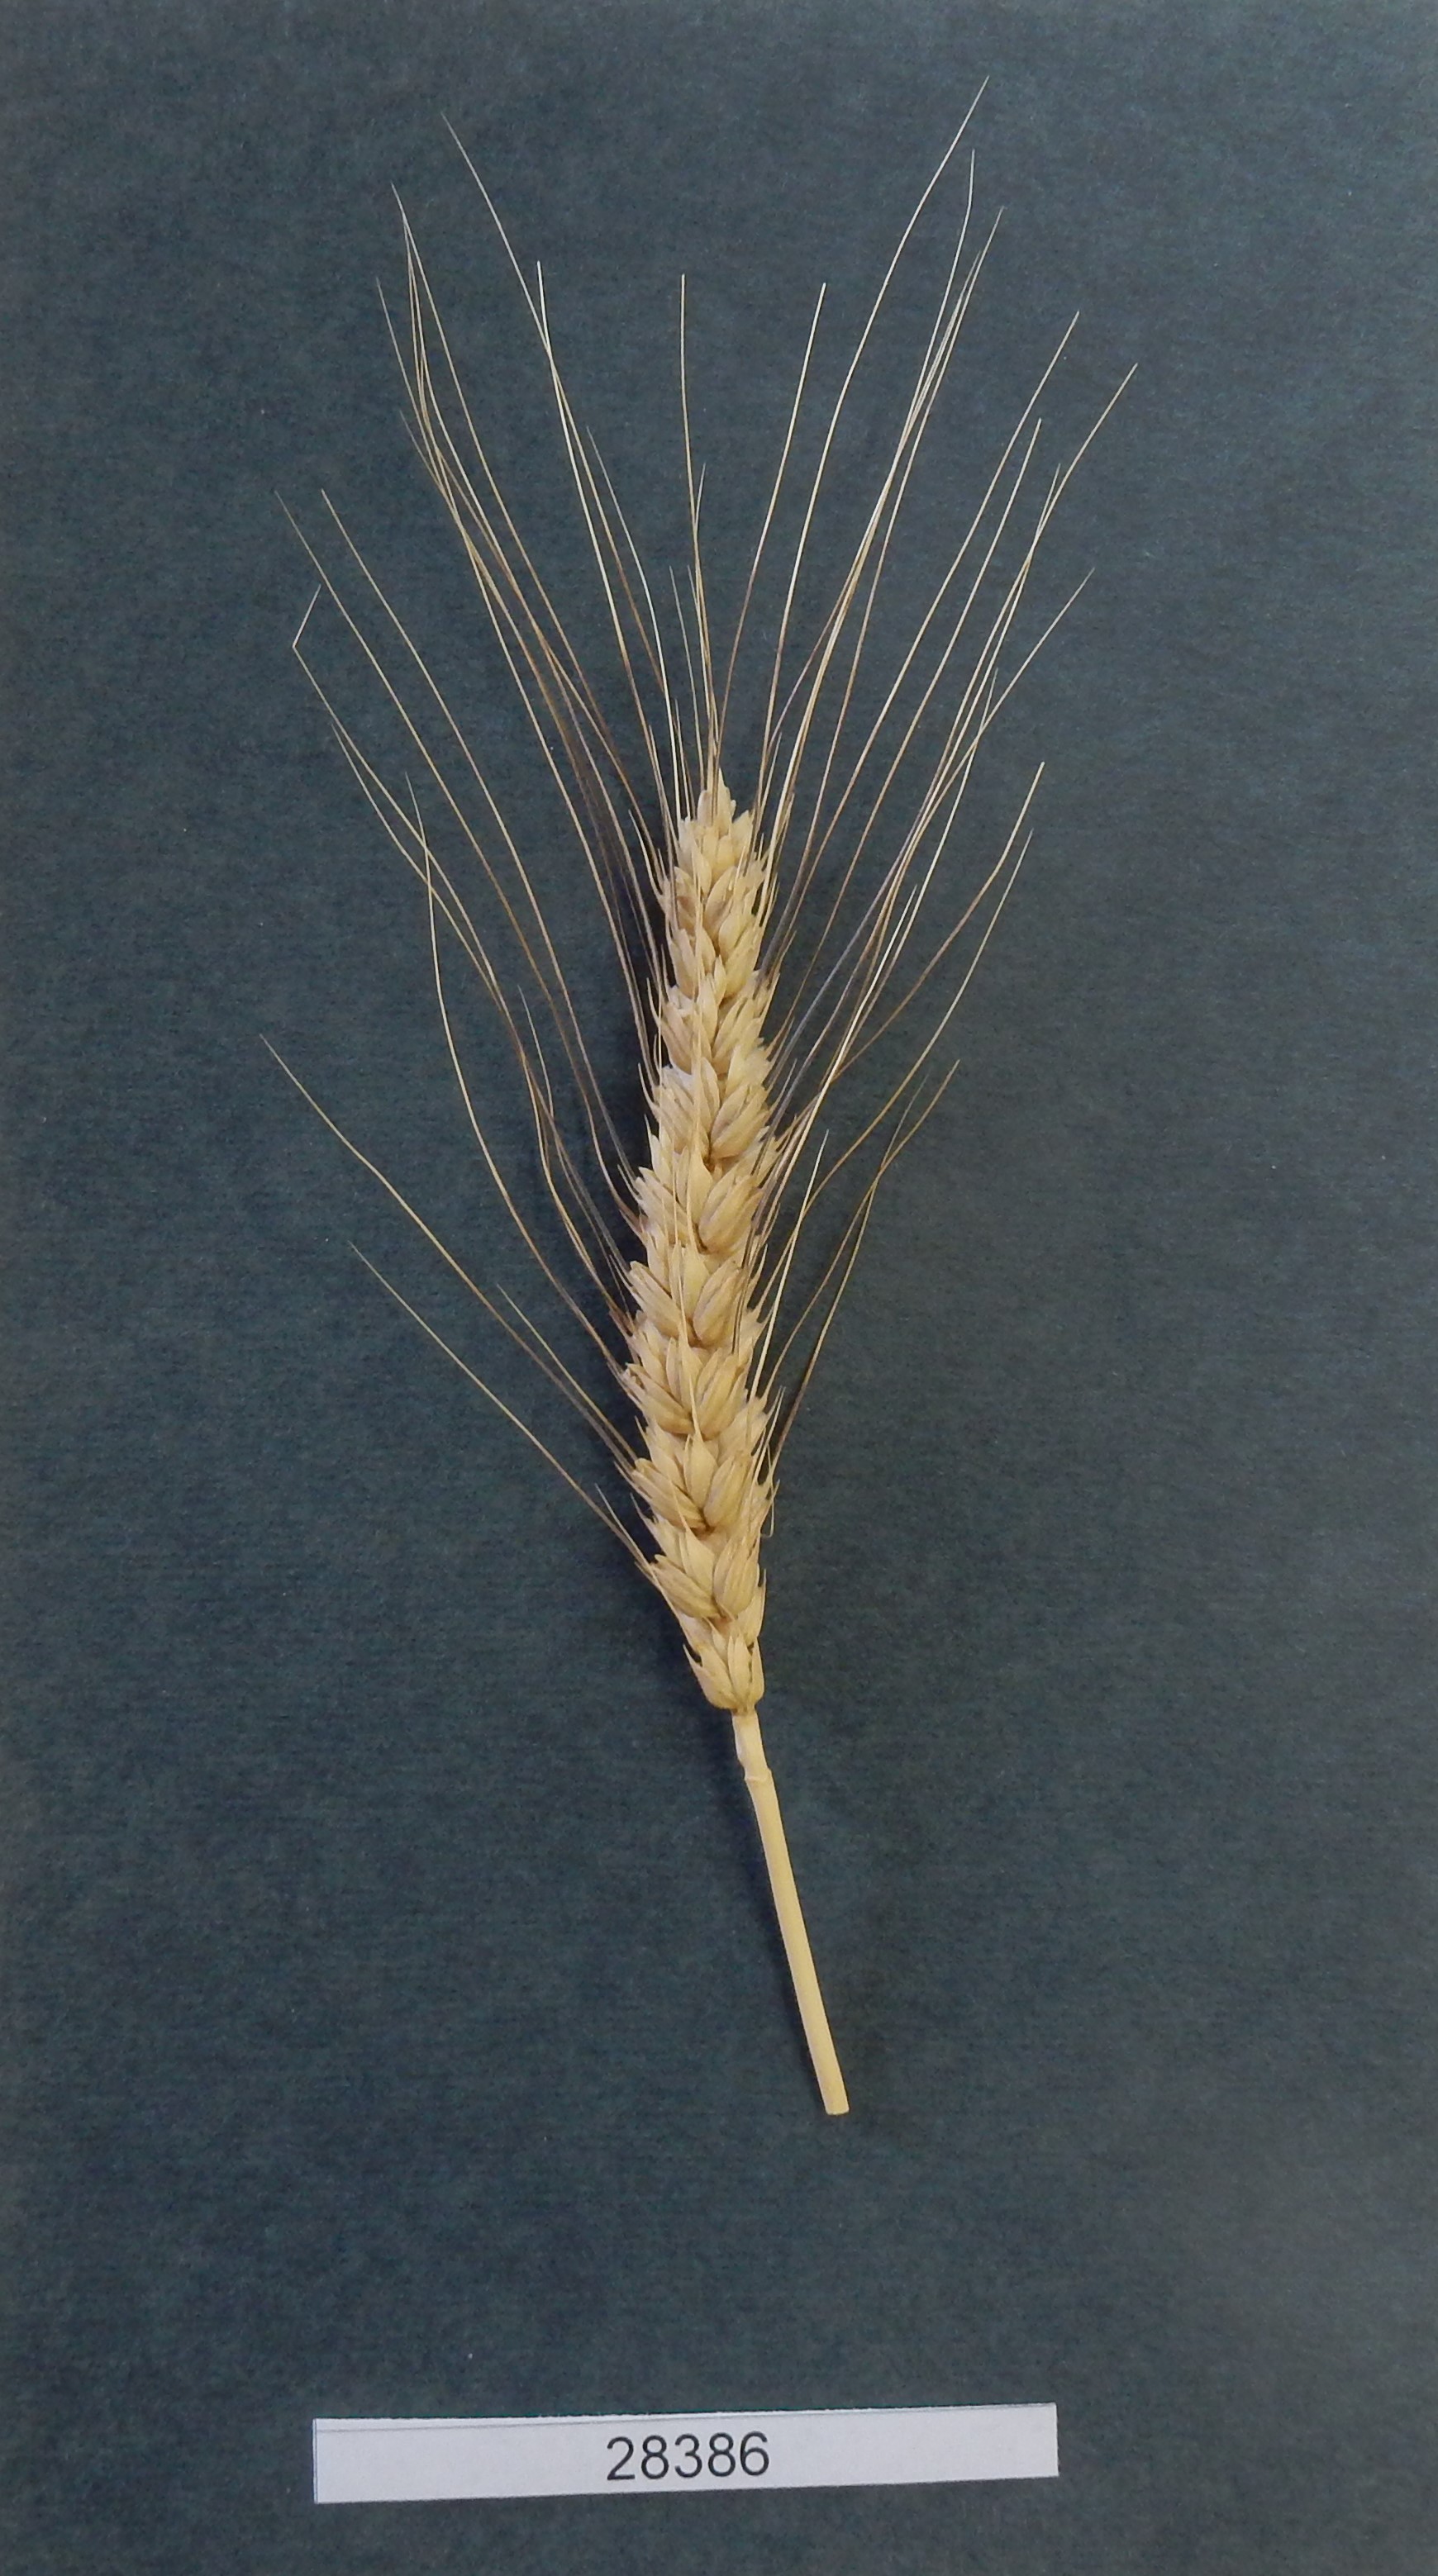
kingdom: Plantae
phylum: Tracheophyta
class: Liliopsida
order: Poales
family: Poaceae
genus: Triticum
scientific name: Triticum aestivum
